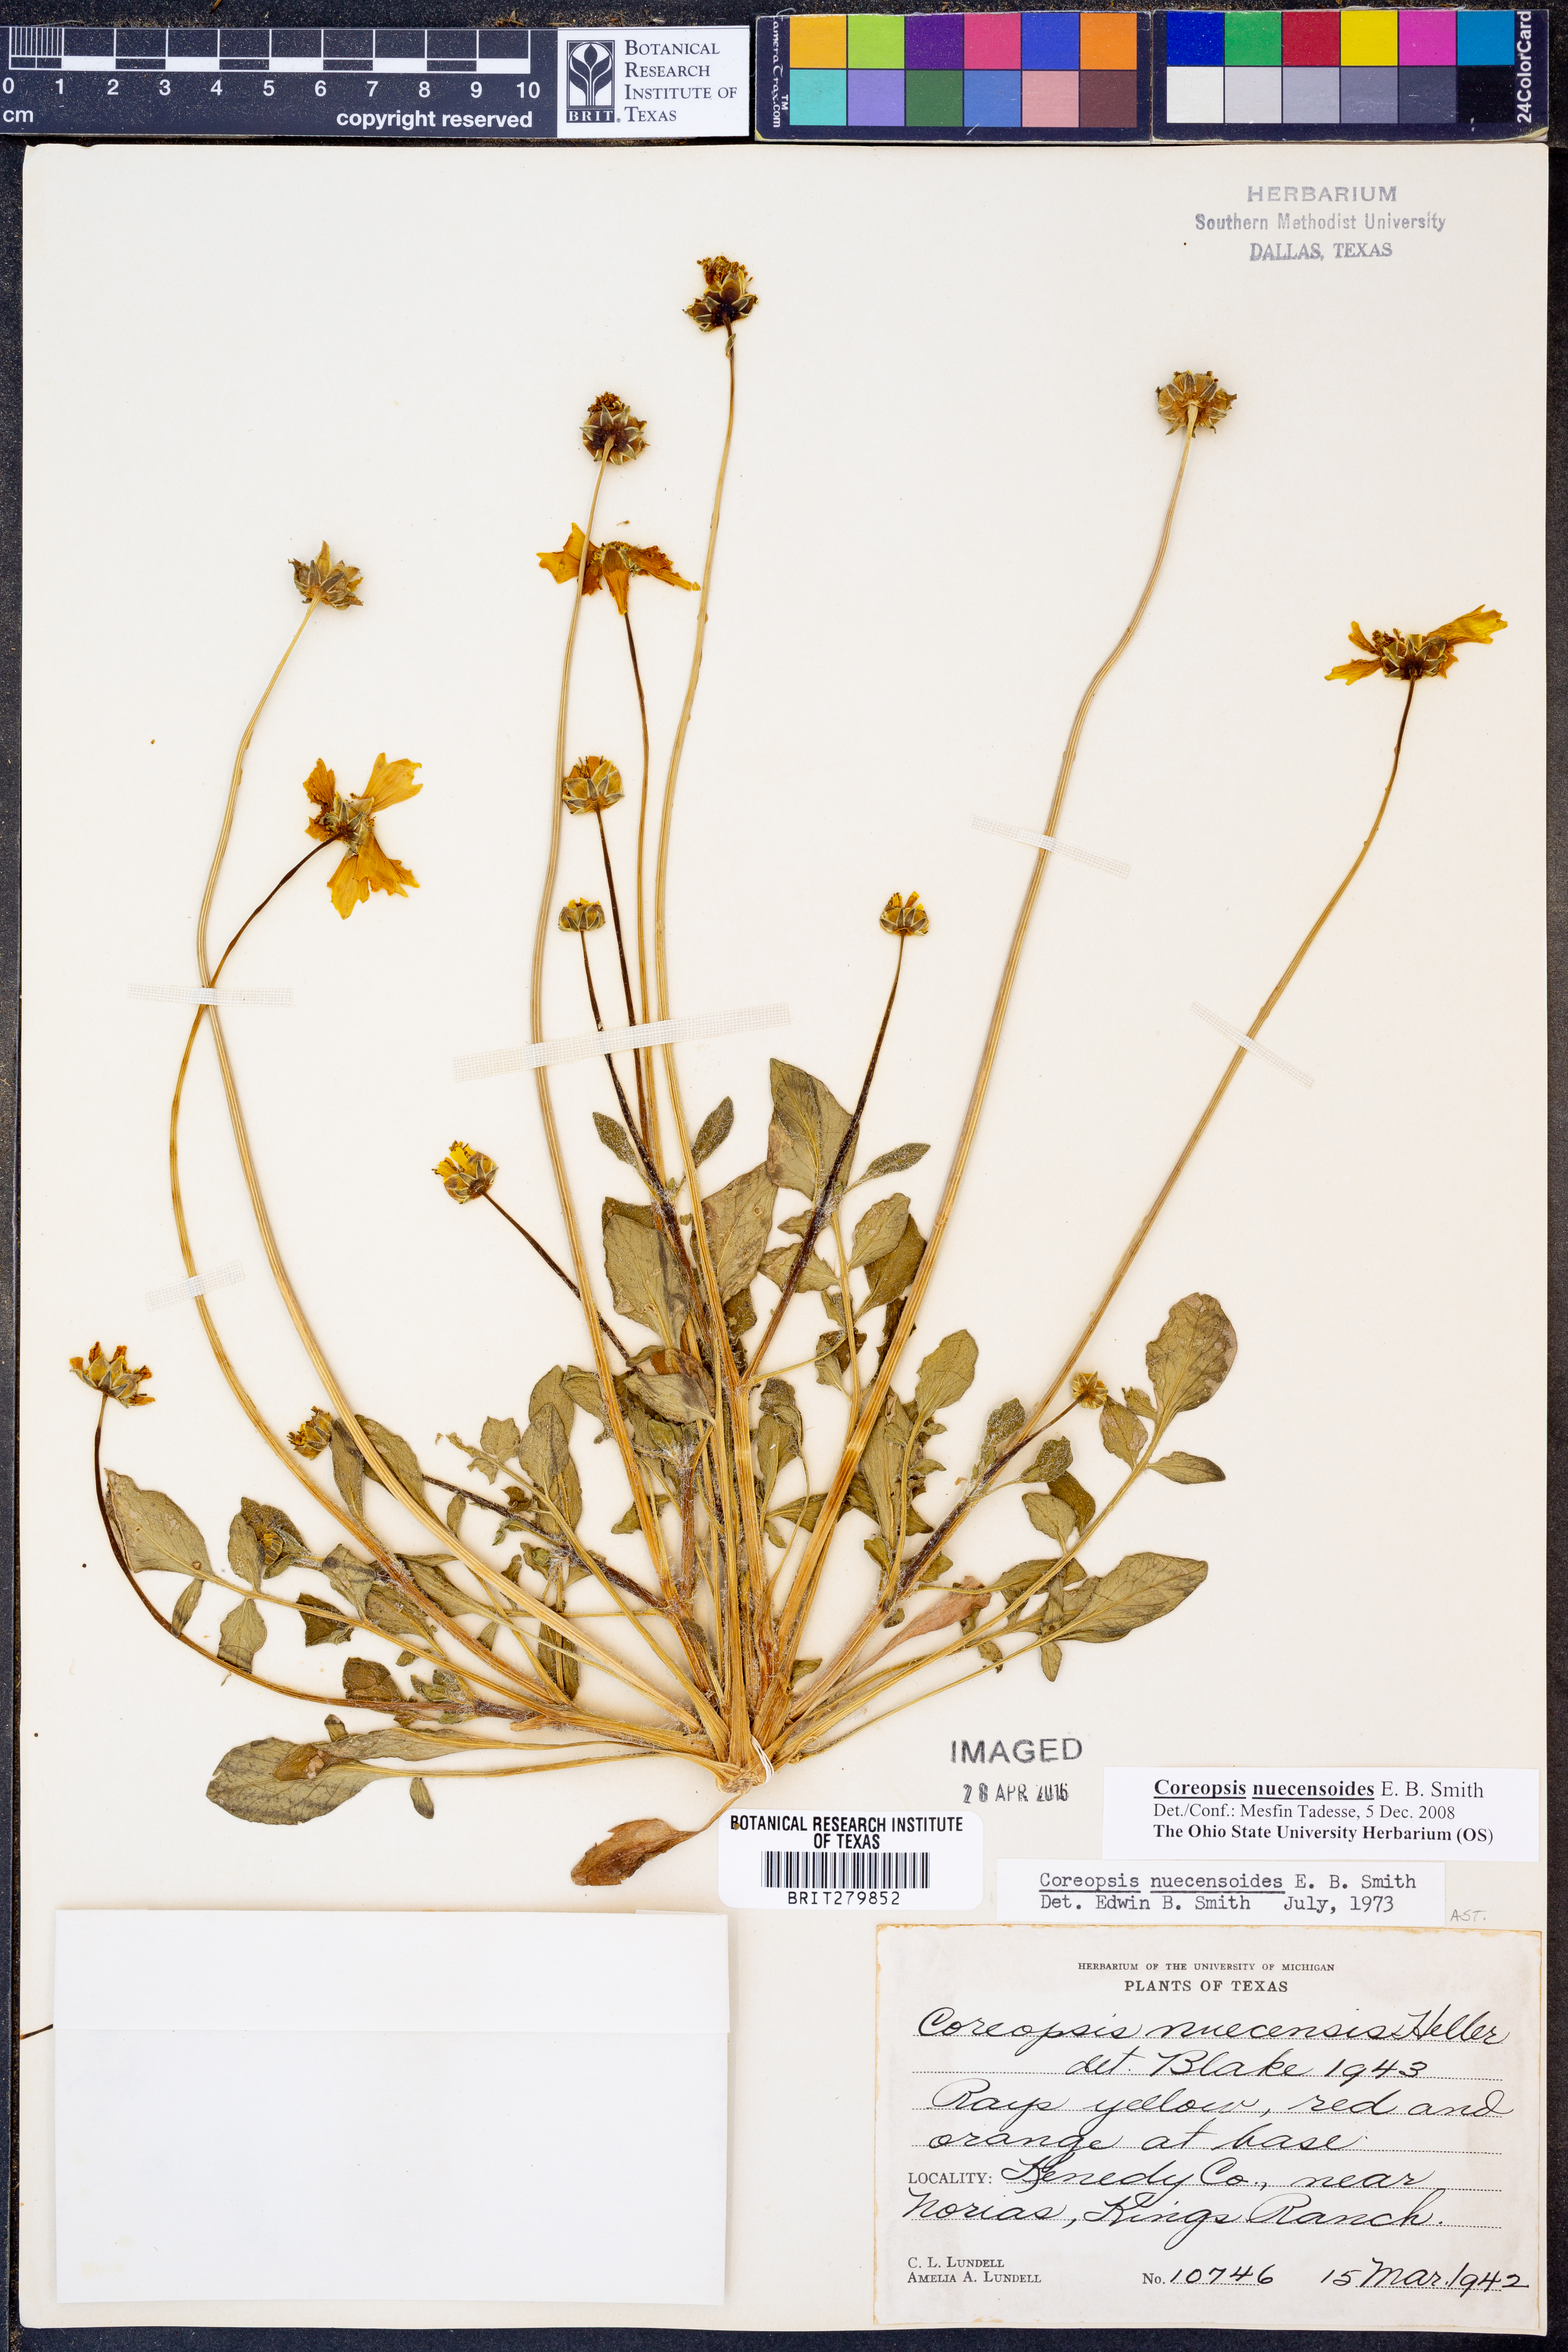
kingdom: Plantae
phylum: Tracheophyta
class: Magnoliopsida
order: Asterales
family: Asteraceae
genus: Coreopsis
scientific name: Coreopsis nuecensis
